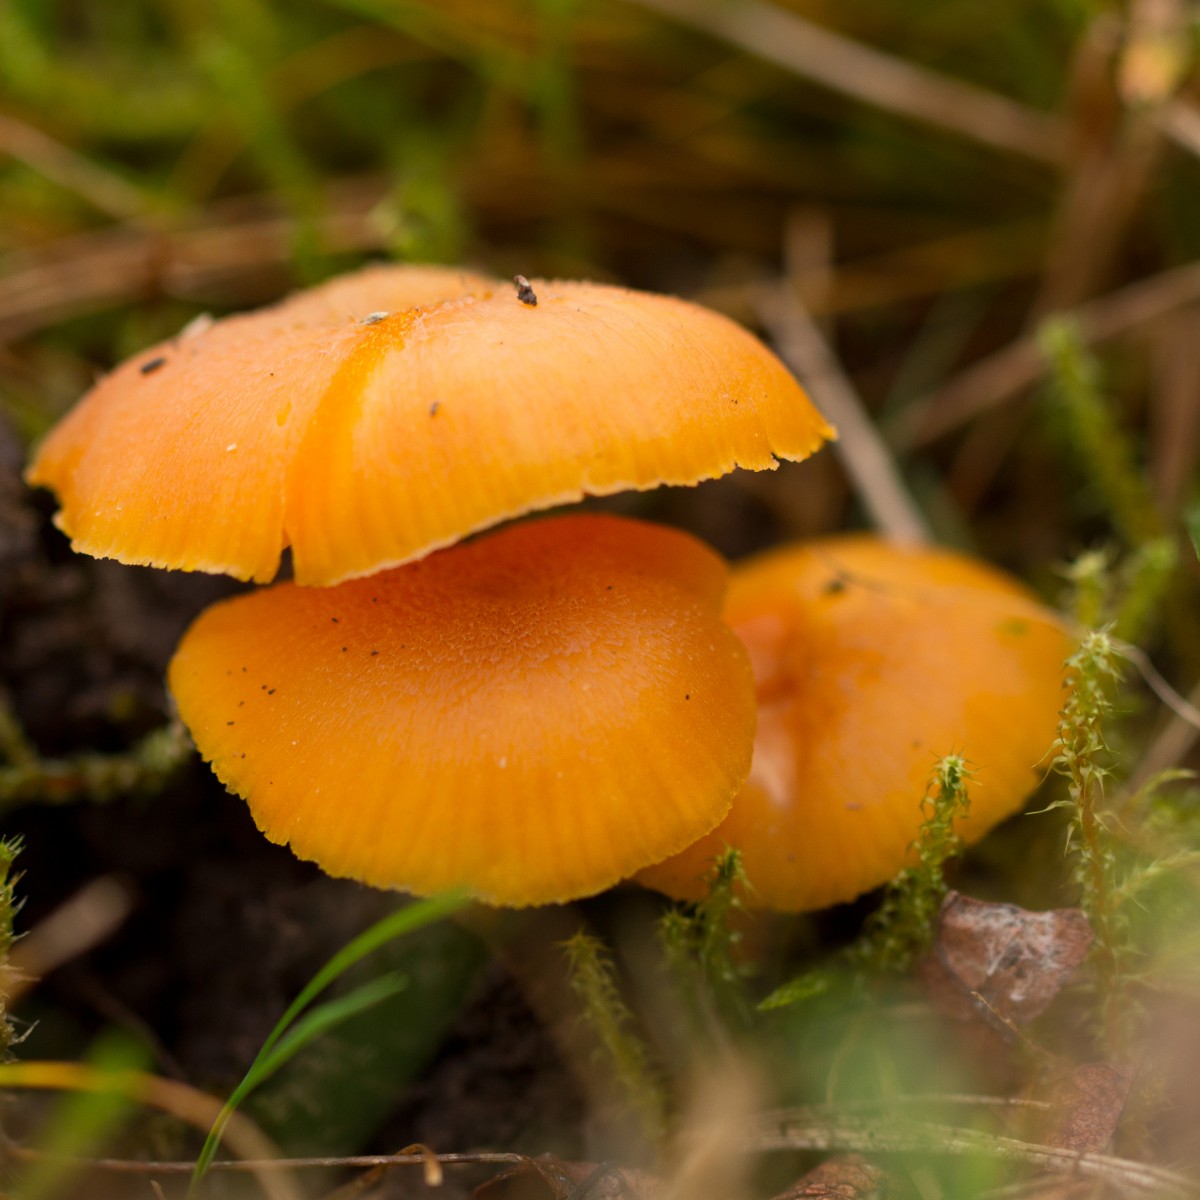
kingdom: Fungi
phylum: Basidiomycota
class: Agaricomycetes
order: Agaricales
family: Hygrophoraceae
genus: Hygrocybe
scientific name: Hygrocybe ceracea
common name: voksgul vokshat
